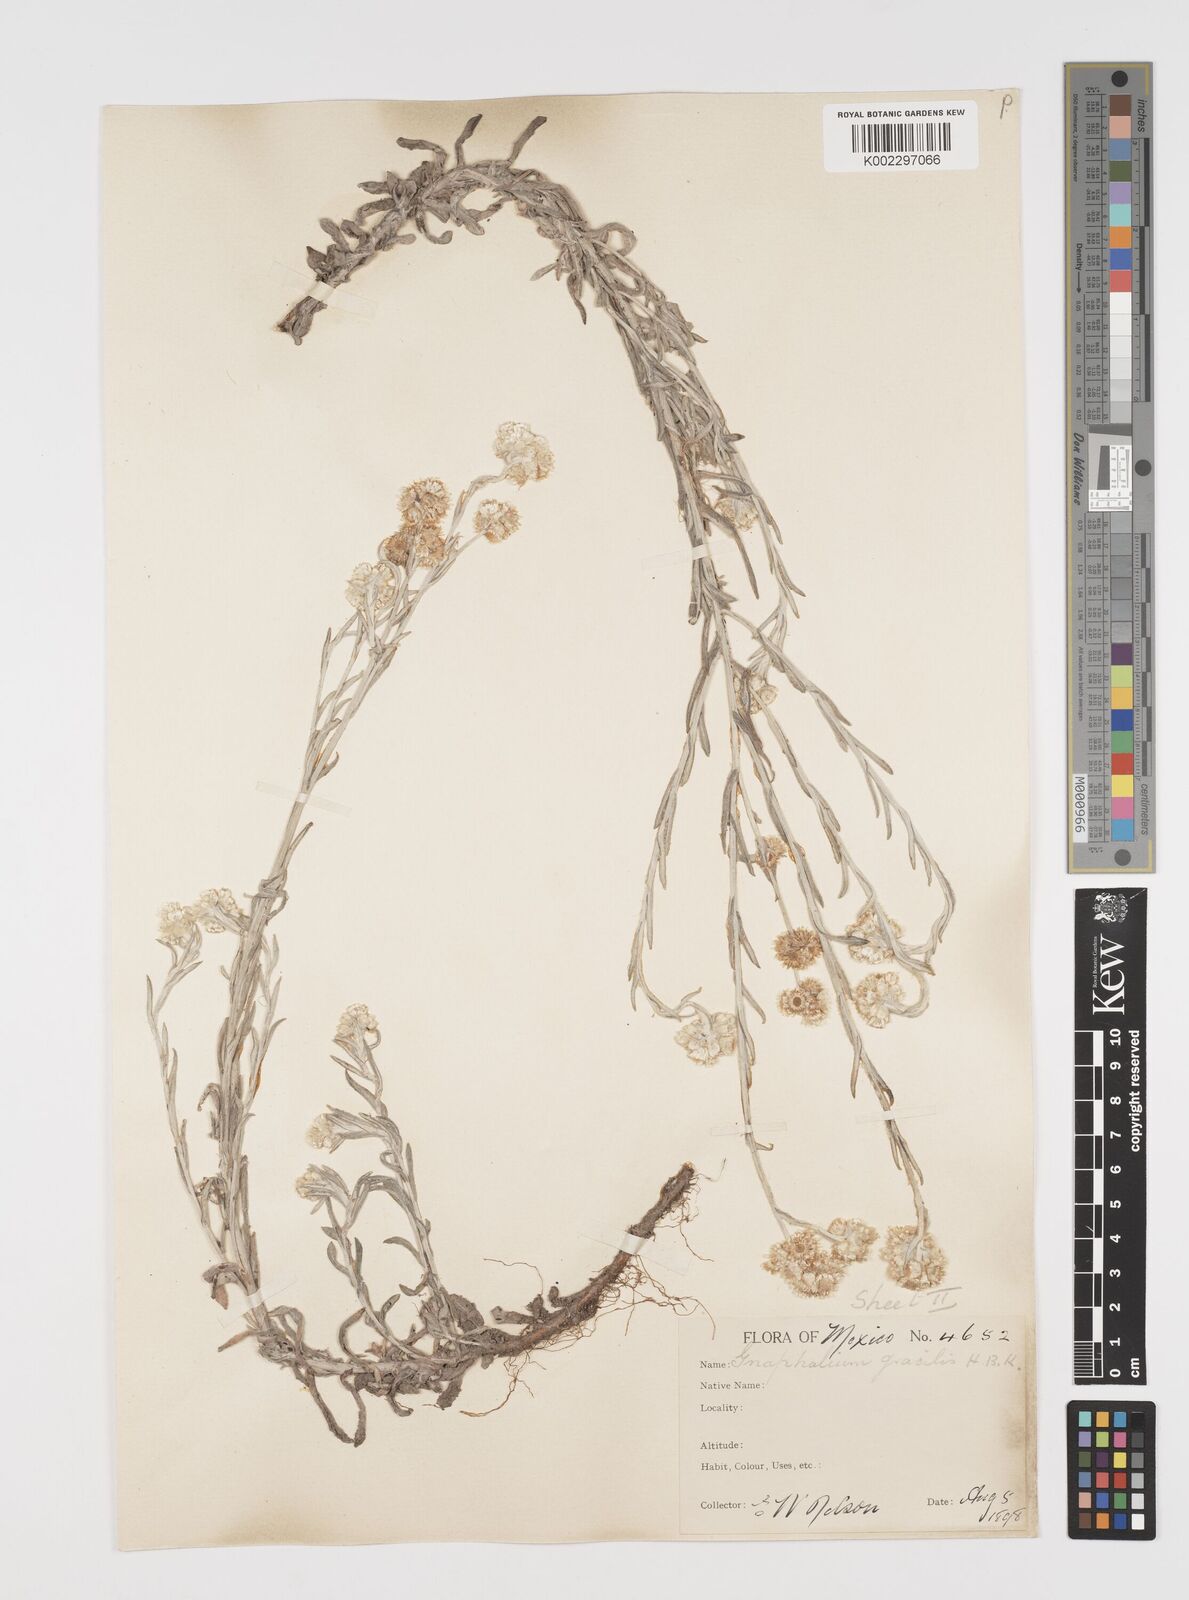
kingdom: Plantae
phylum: Tracheophyta
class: Magnoliopsida
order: Asterales
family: Asteraceae
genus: Pseudognaphalium
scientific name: Pseudognaphalium
